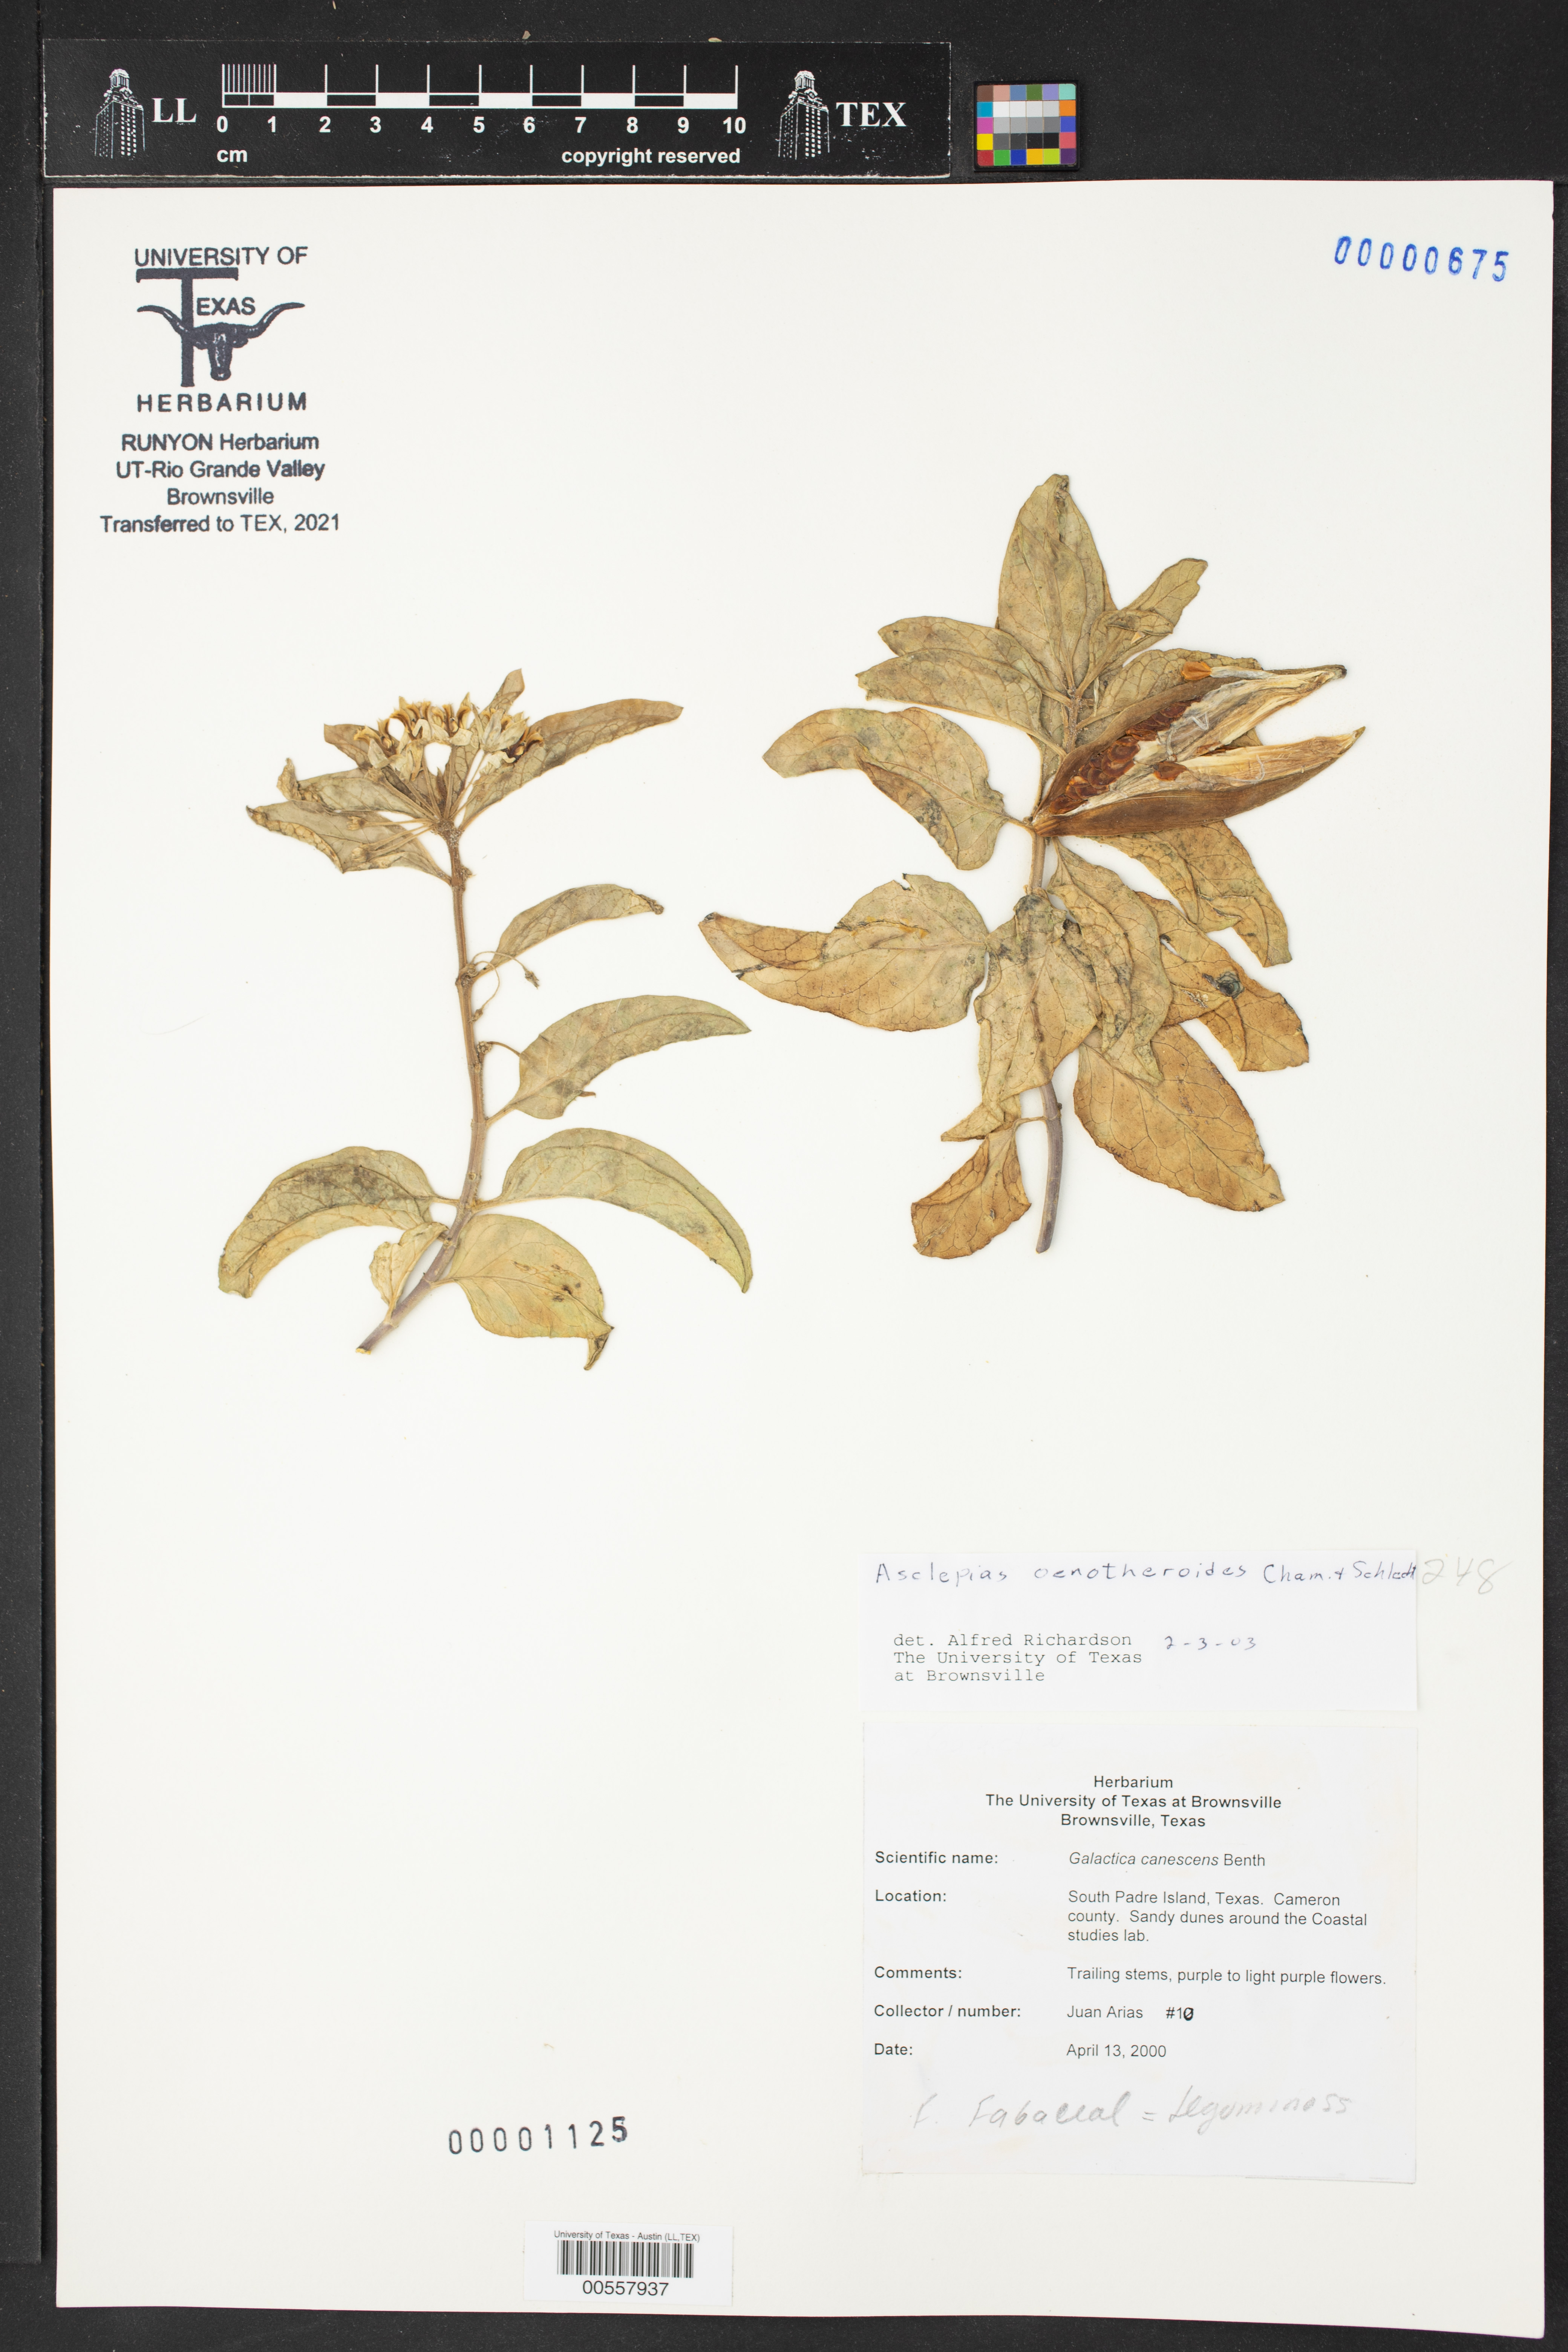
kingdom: Plantae
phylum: Tracheophyta
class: Magnoliopsida
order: Gentianales
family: Apocynaceae
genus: Asclepias
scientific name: Asclepias oenotheroides
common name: Zizotes milkweed
